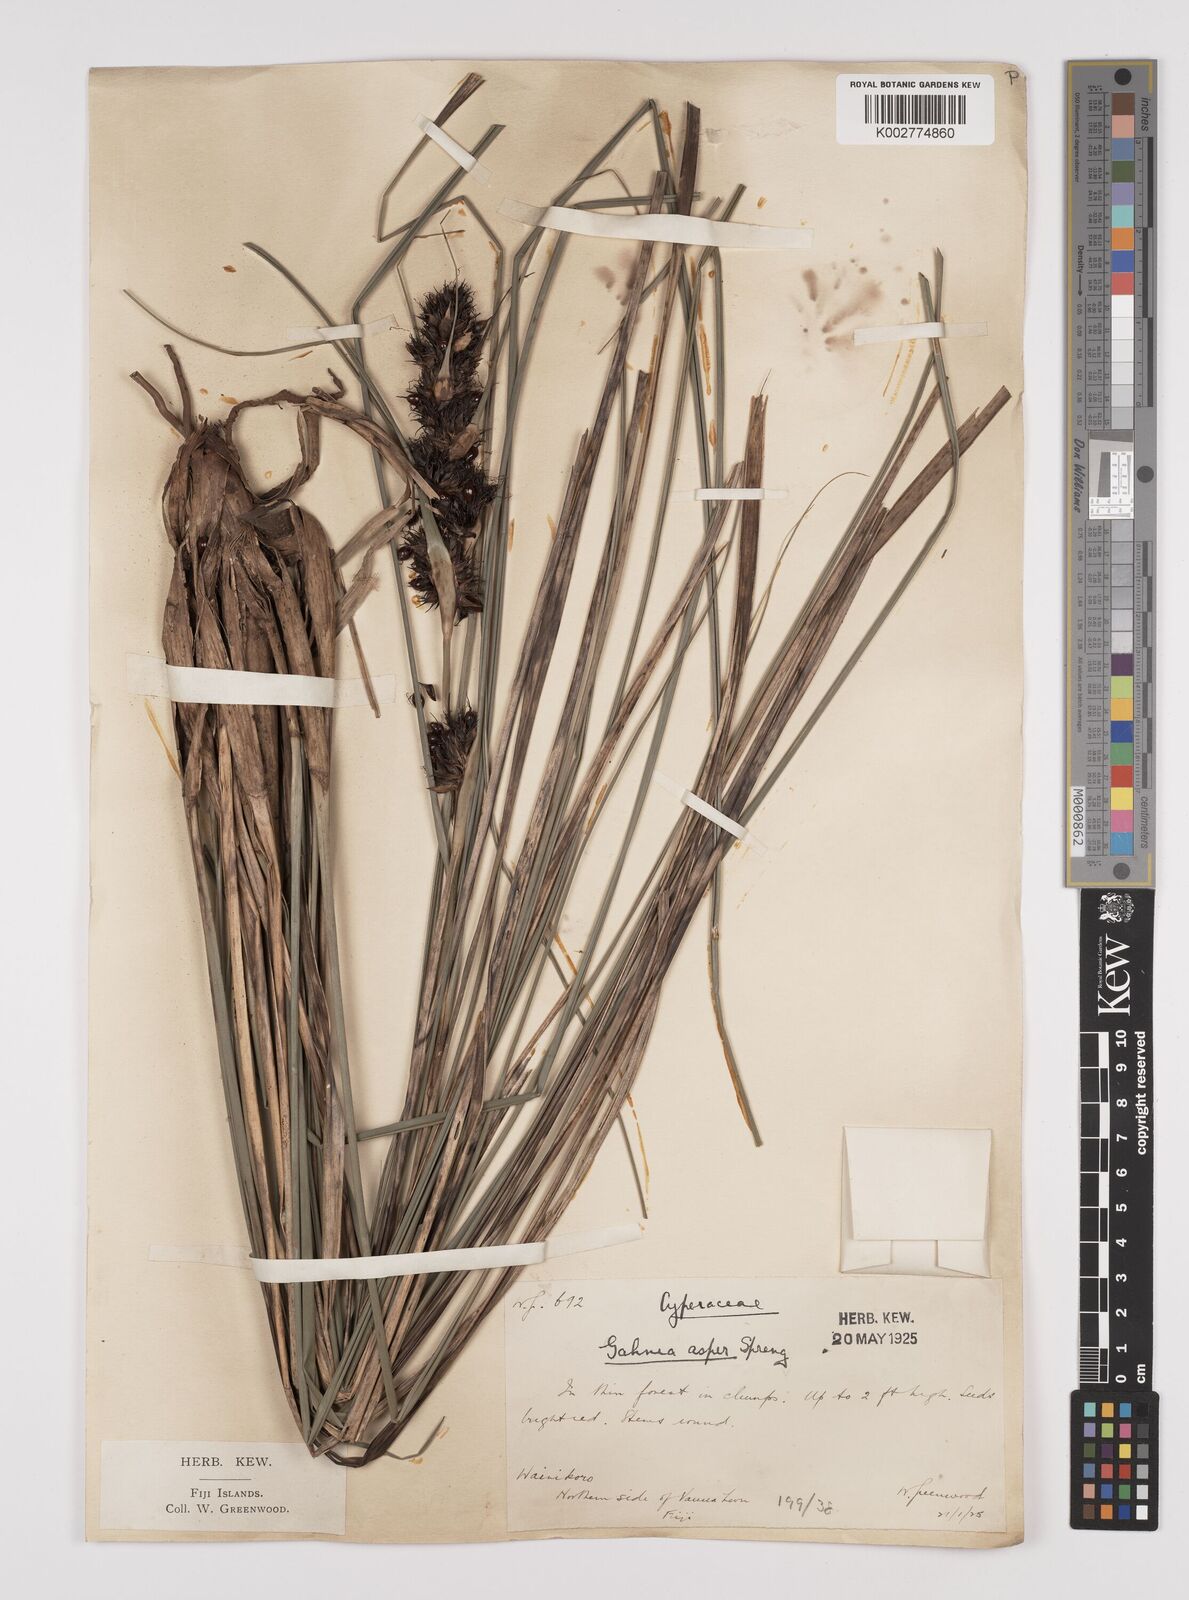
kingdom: Plantae
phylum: Tracheophyta
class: Liliopsida
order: Poales
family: Cyperaceae
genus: Gahnia
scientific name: Gahnia aspera
